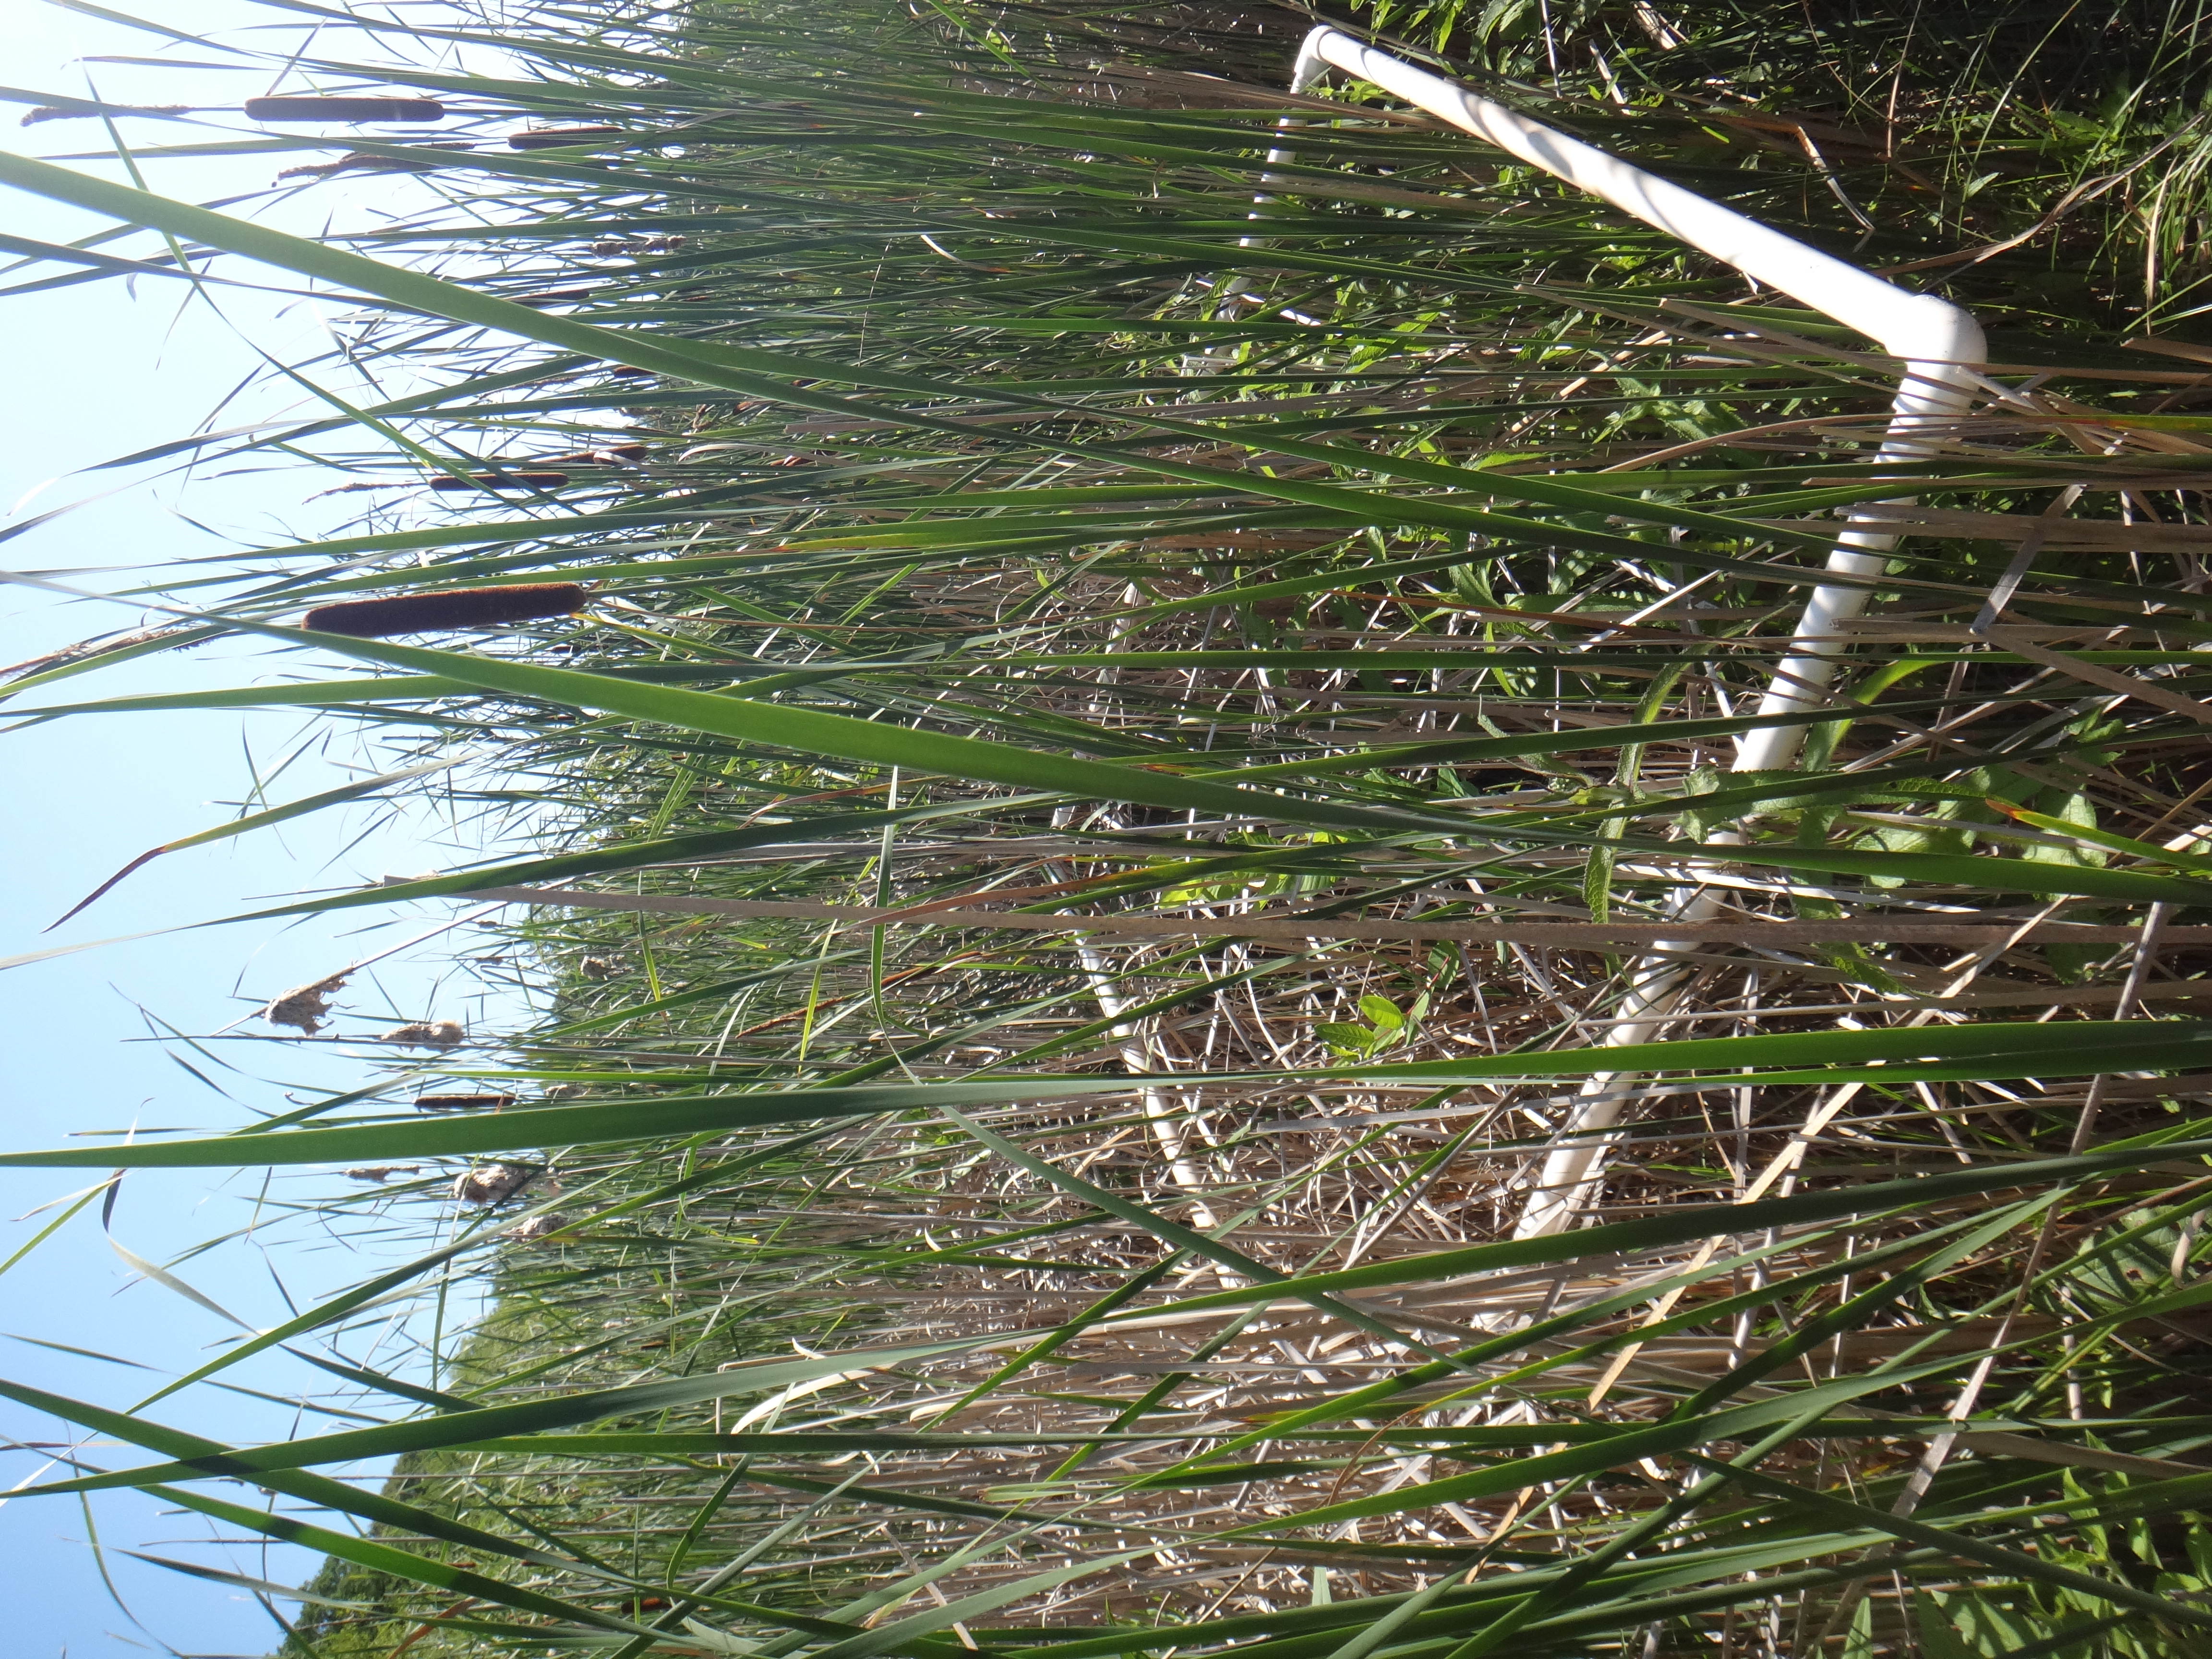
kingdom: Plantae
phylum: Tracheophyta
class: Magnoliopsida
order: Lamiales
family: Lamiaceae
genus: Lycopus
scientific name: Lycopus uniflorus
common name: Northern bugleweed
